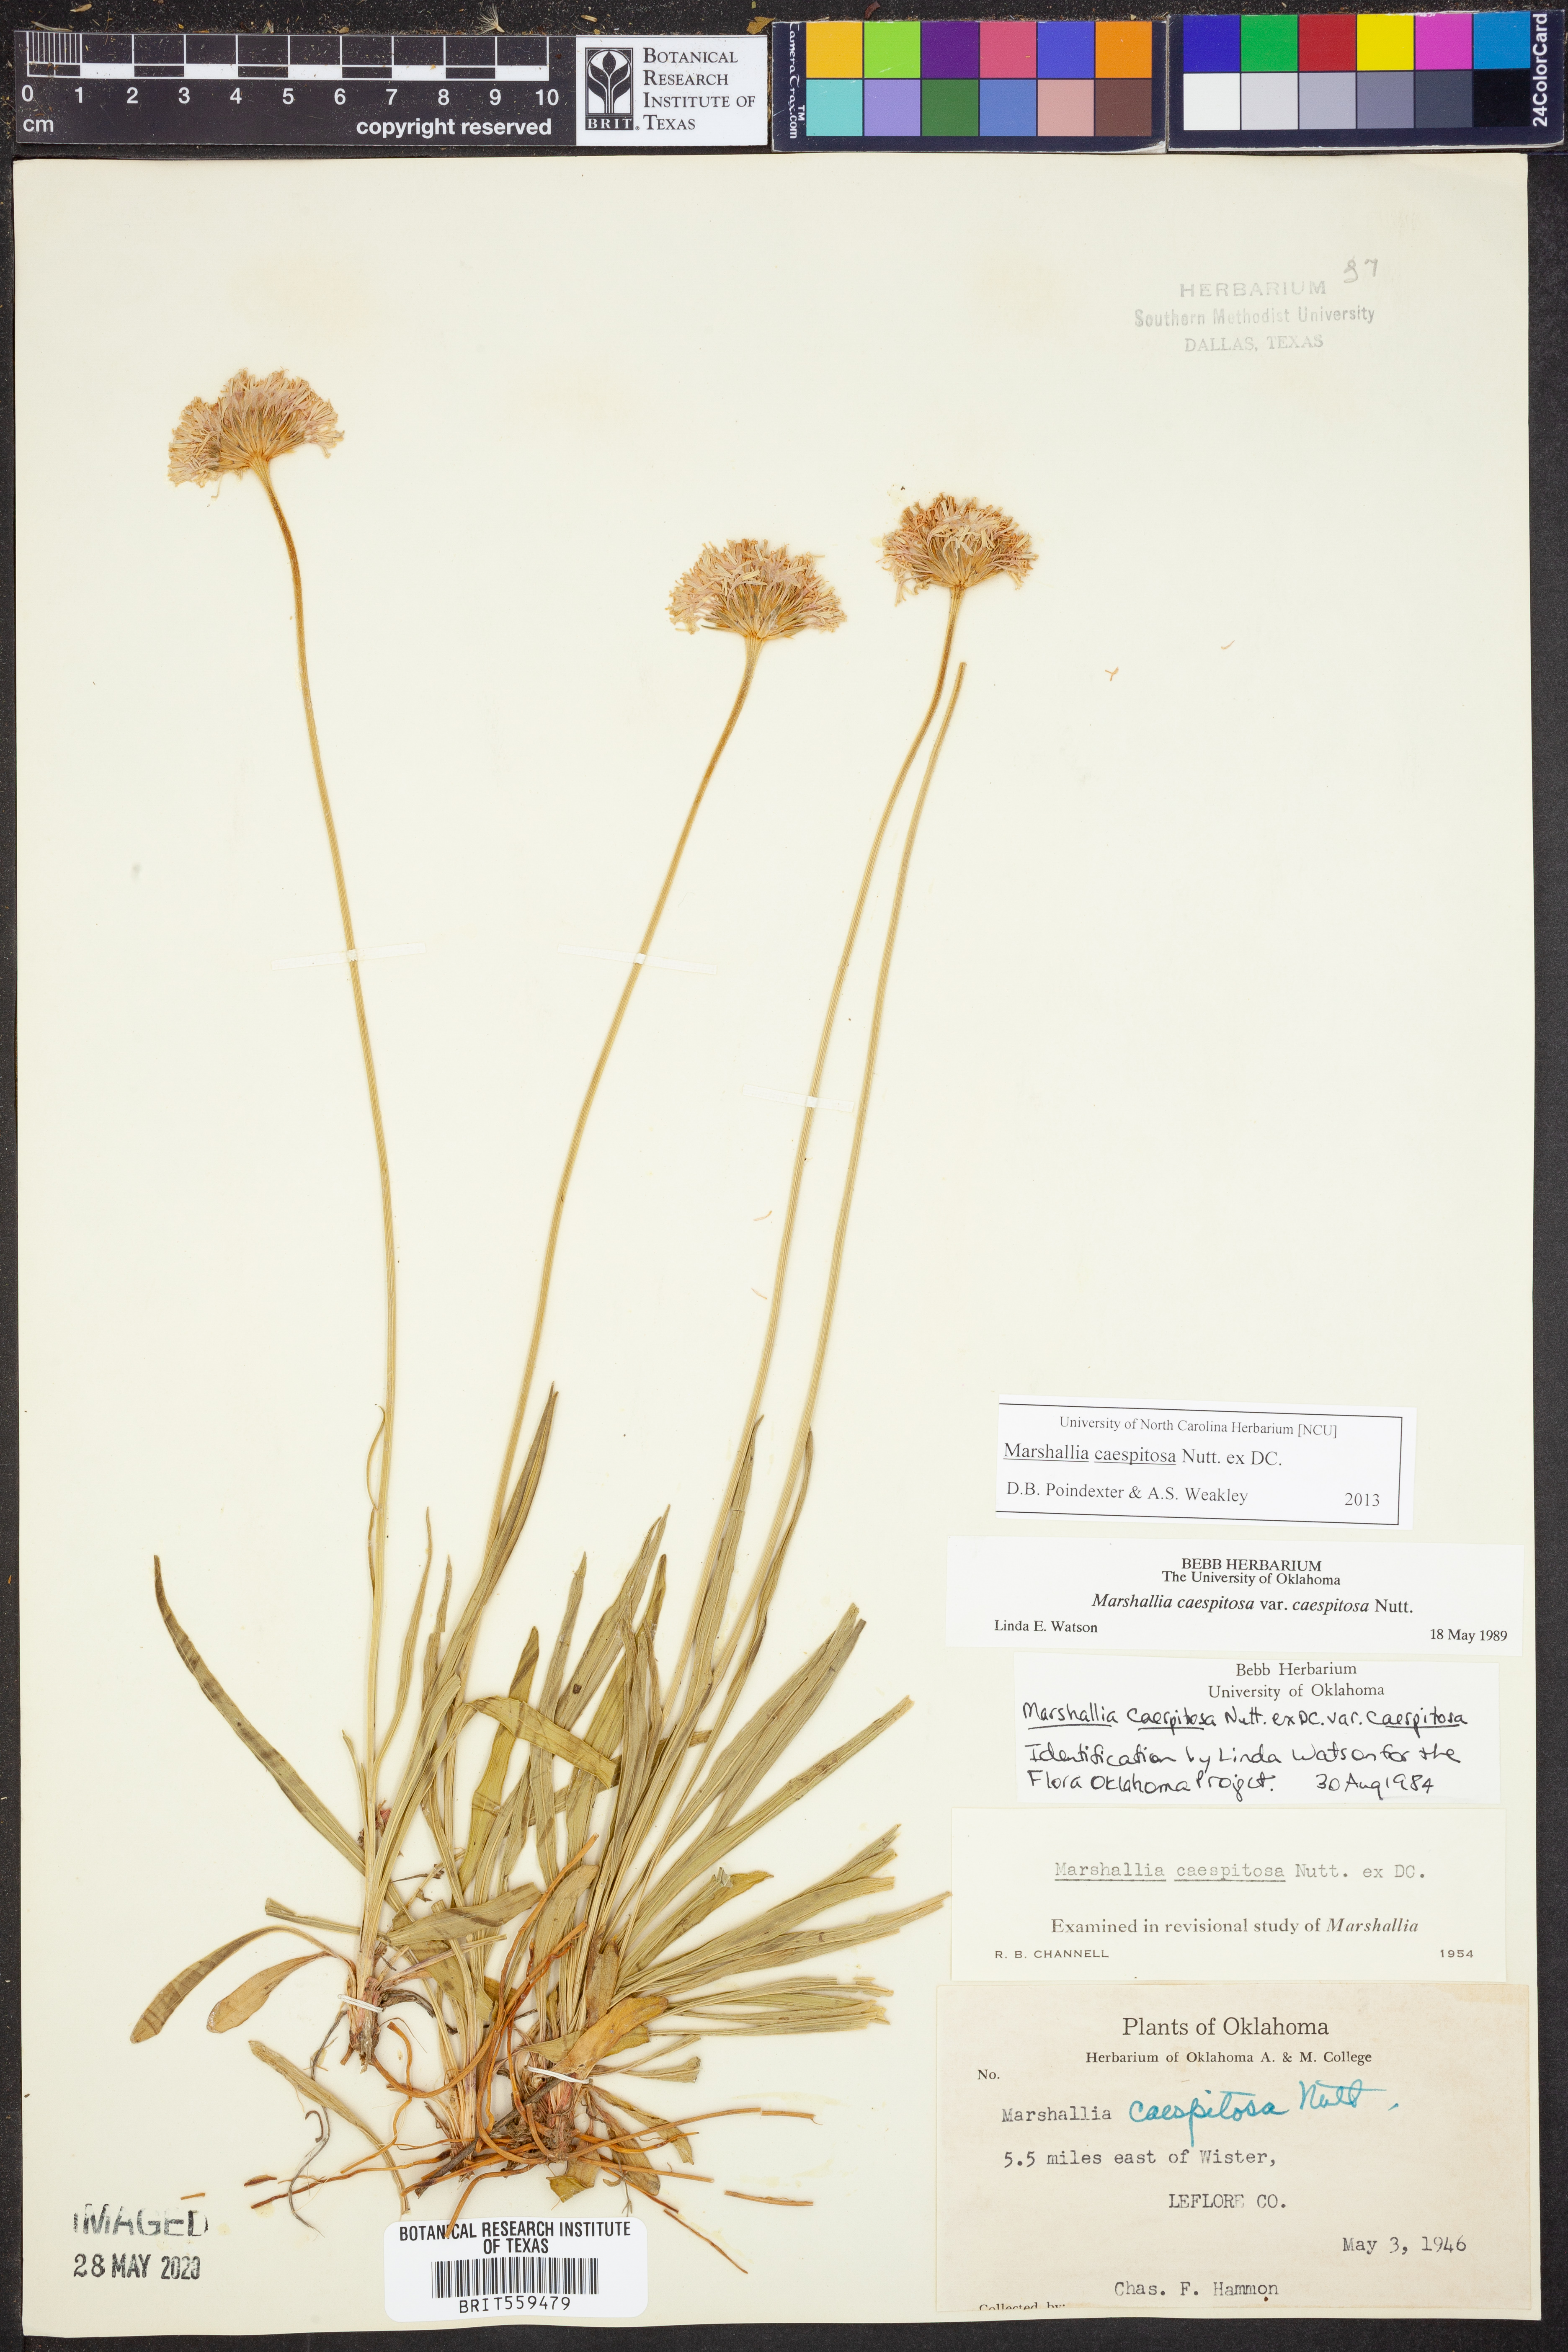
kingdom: Plantae
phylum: Tracheophyta
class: Magnoliopsida
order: Asterales
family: Asteraceae
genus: Marshallia
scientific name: Marshallia caespitosa
